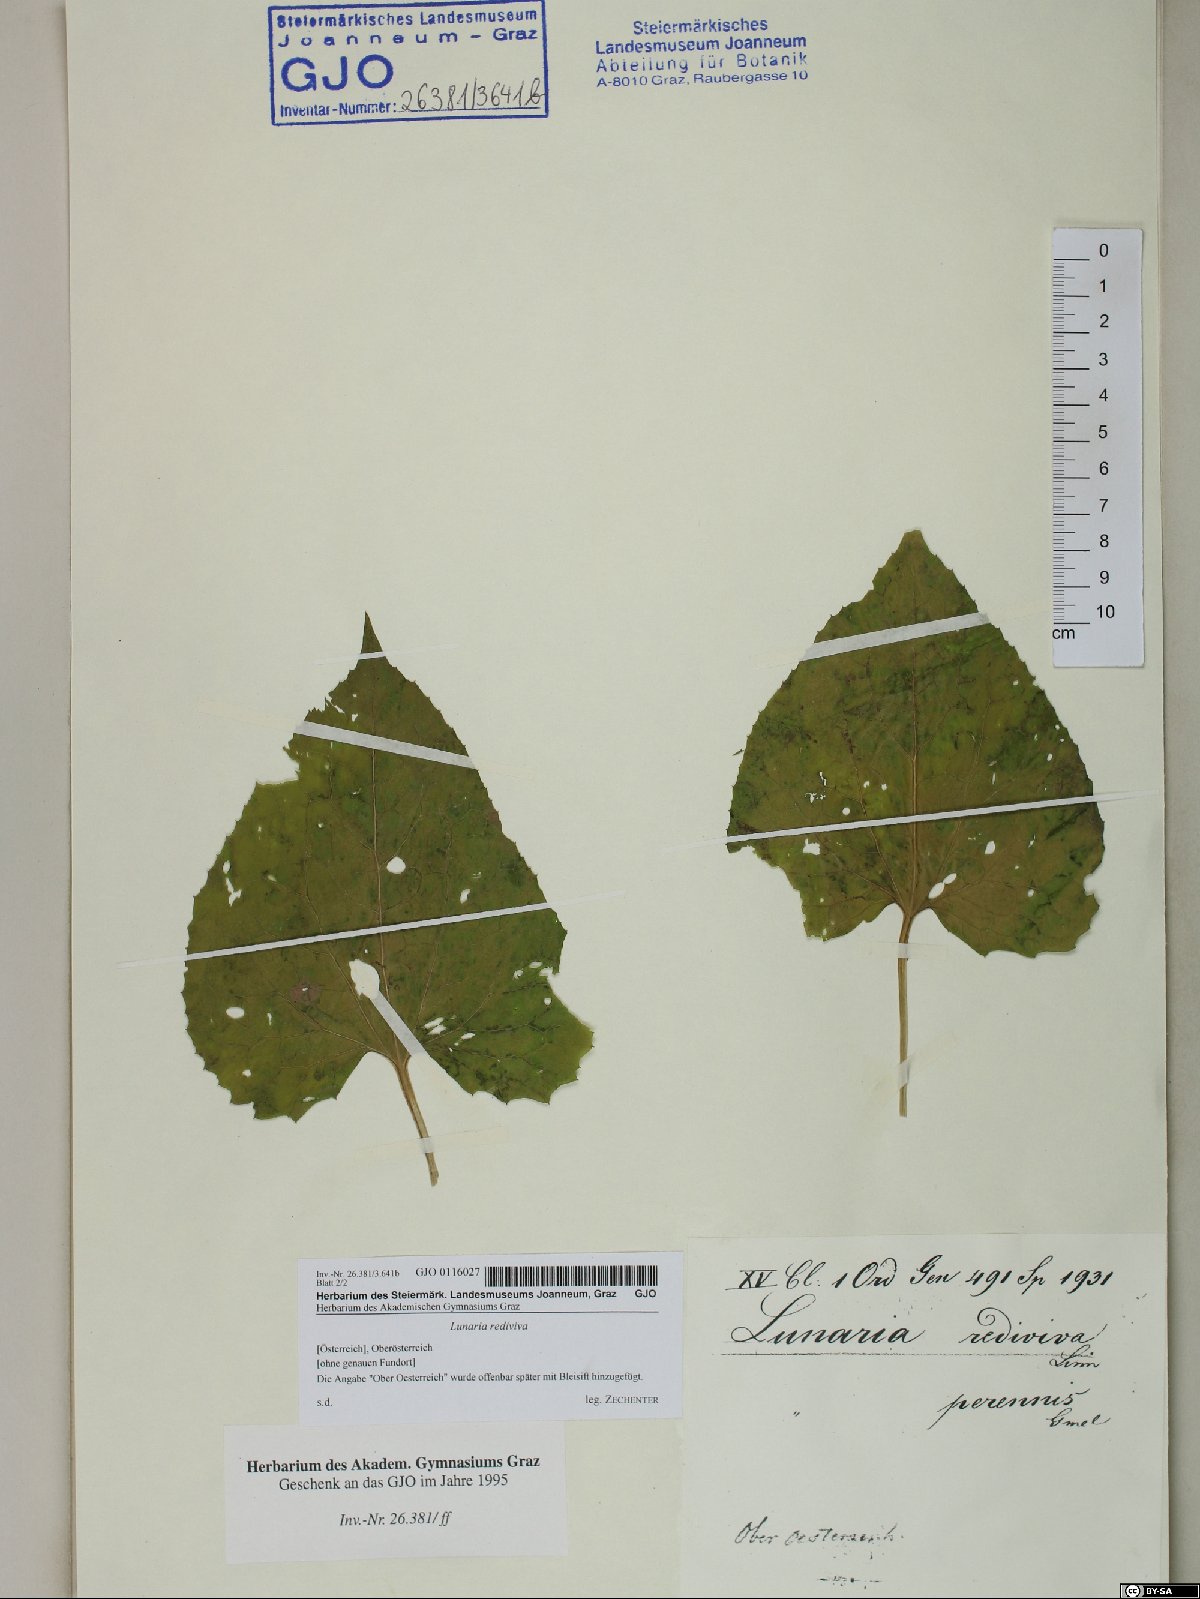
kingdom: Plantae
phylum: Tracheophyta
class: Magnoliopsida
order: Brassicales
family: Brassicaceae
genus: Lunaria
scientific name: Lunaria rediviva
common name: Perennial honesty
